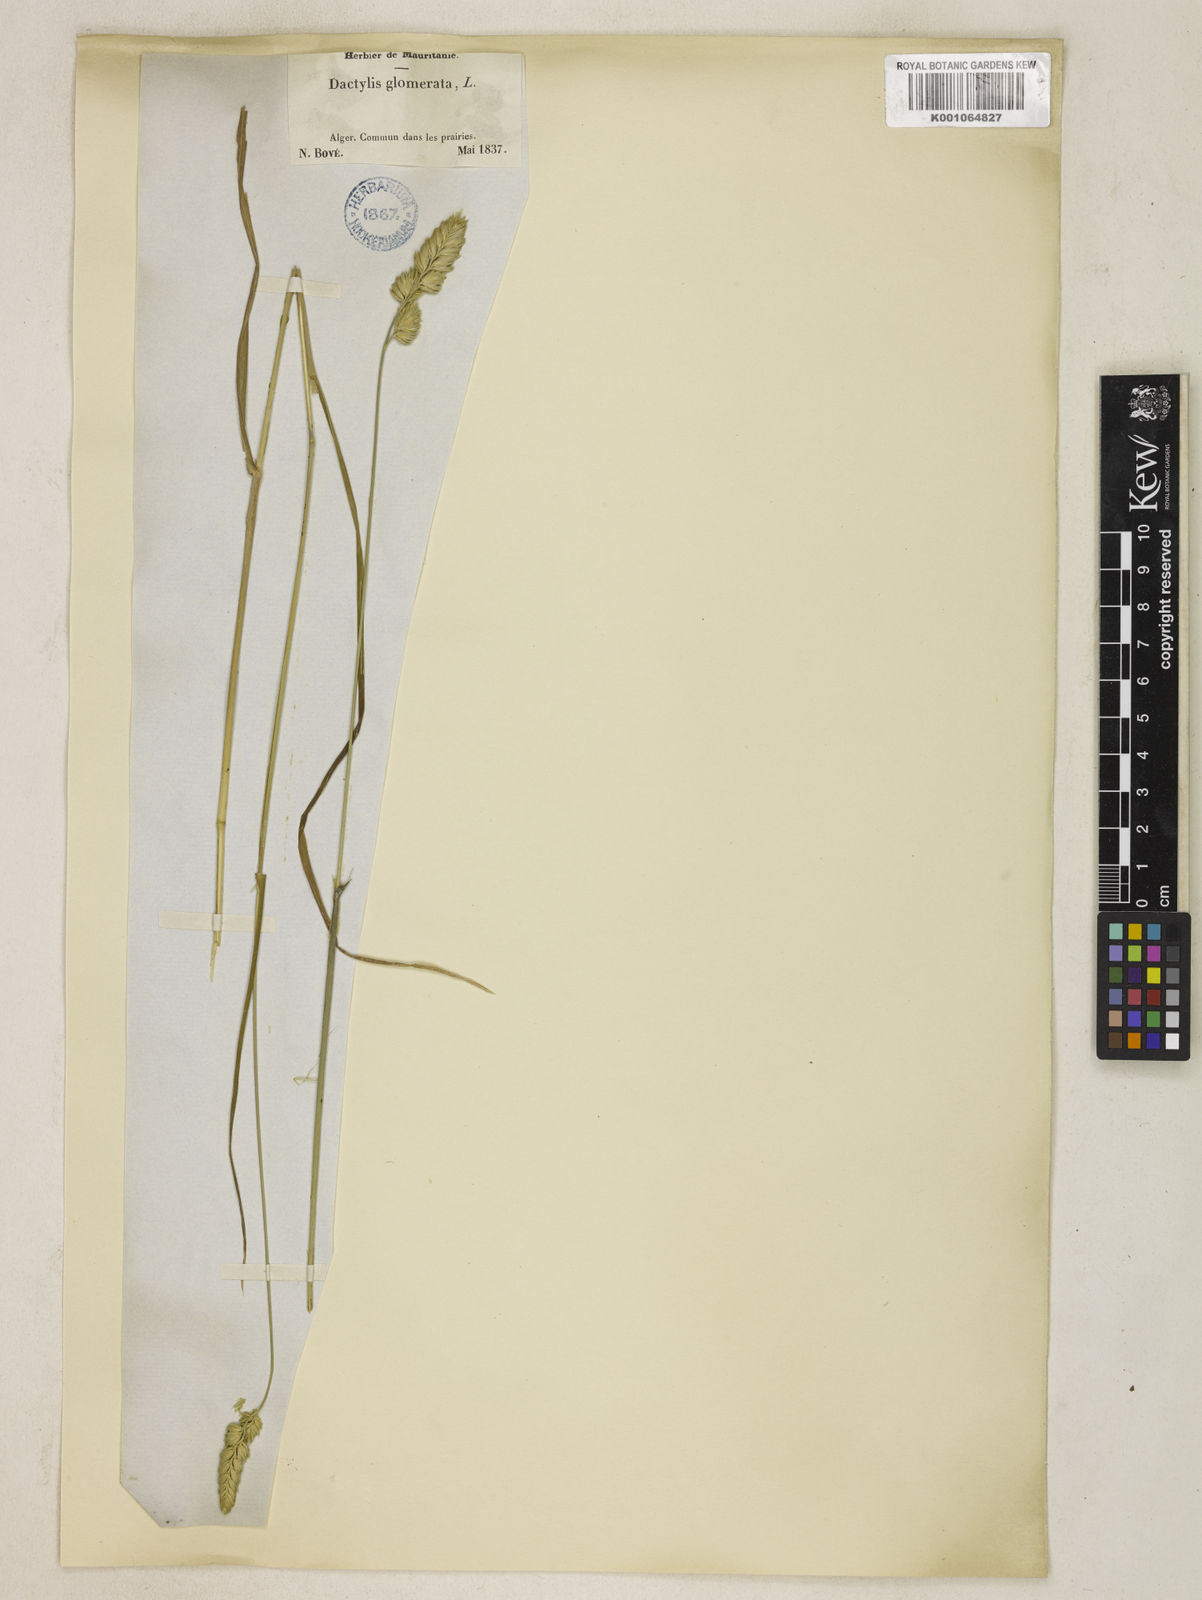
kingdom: Plantae
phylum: Tracheophyta
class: Liliopsida
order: Poales
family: Poaceae
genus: Dactylis
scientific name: Dactylis glomerata
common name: Orchardgrass
